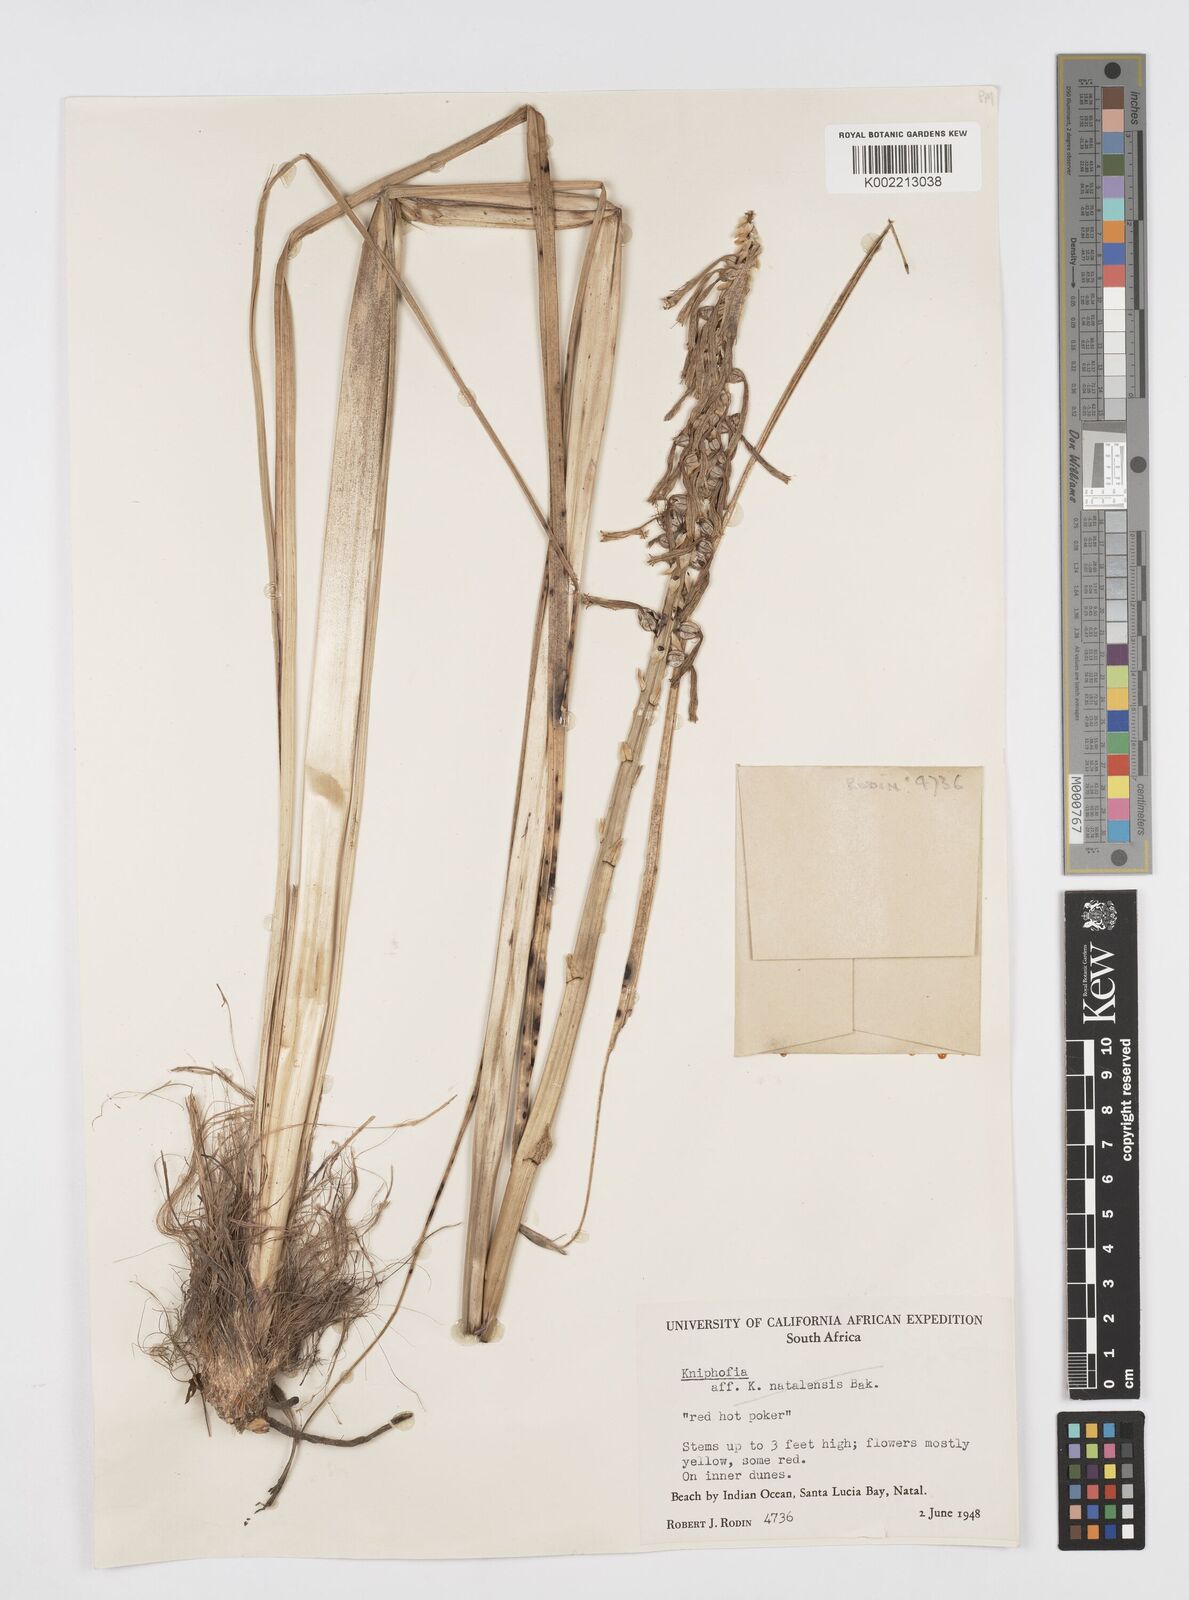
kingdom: Plantae
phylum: Tracheophyta
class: Liliopsida
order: Asparagales
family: Asphodelaceae
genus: Kniphofia
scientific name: Kniphofia
